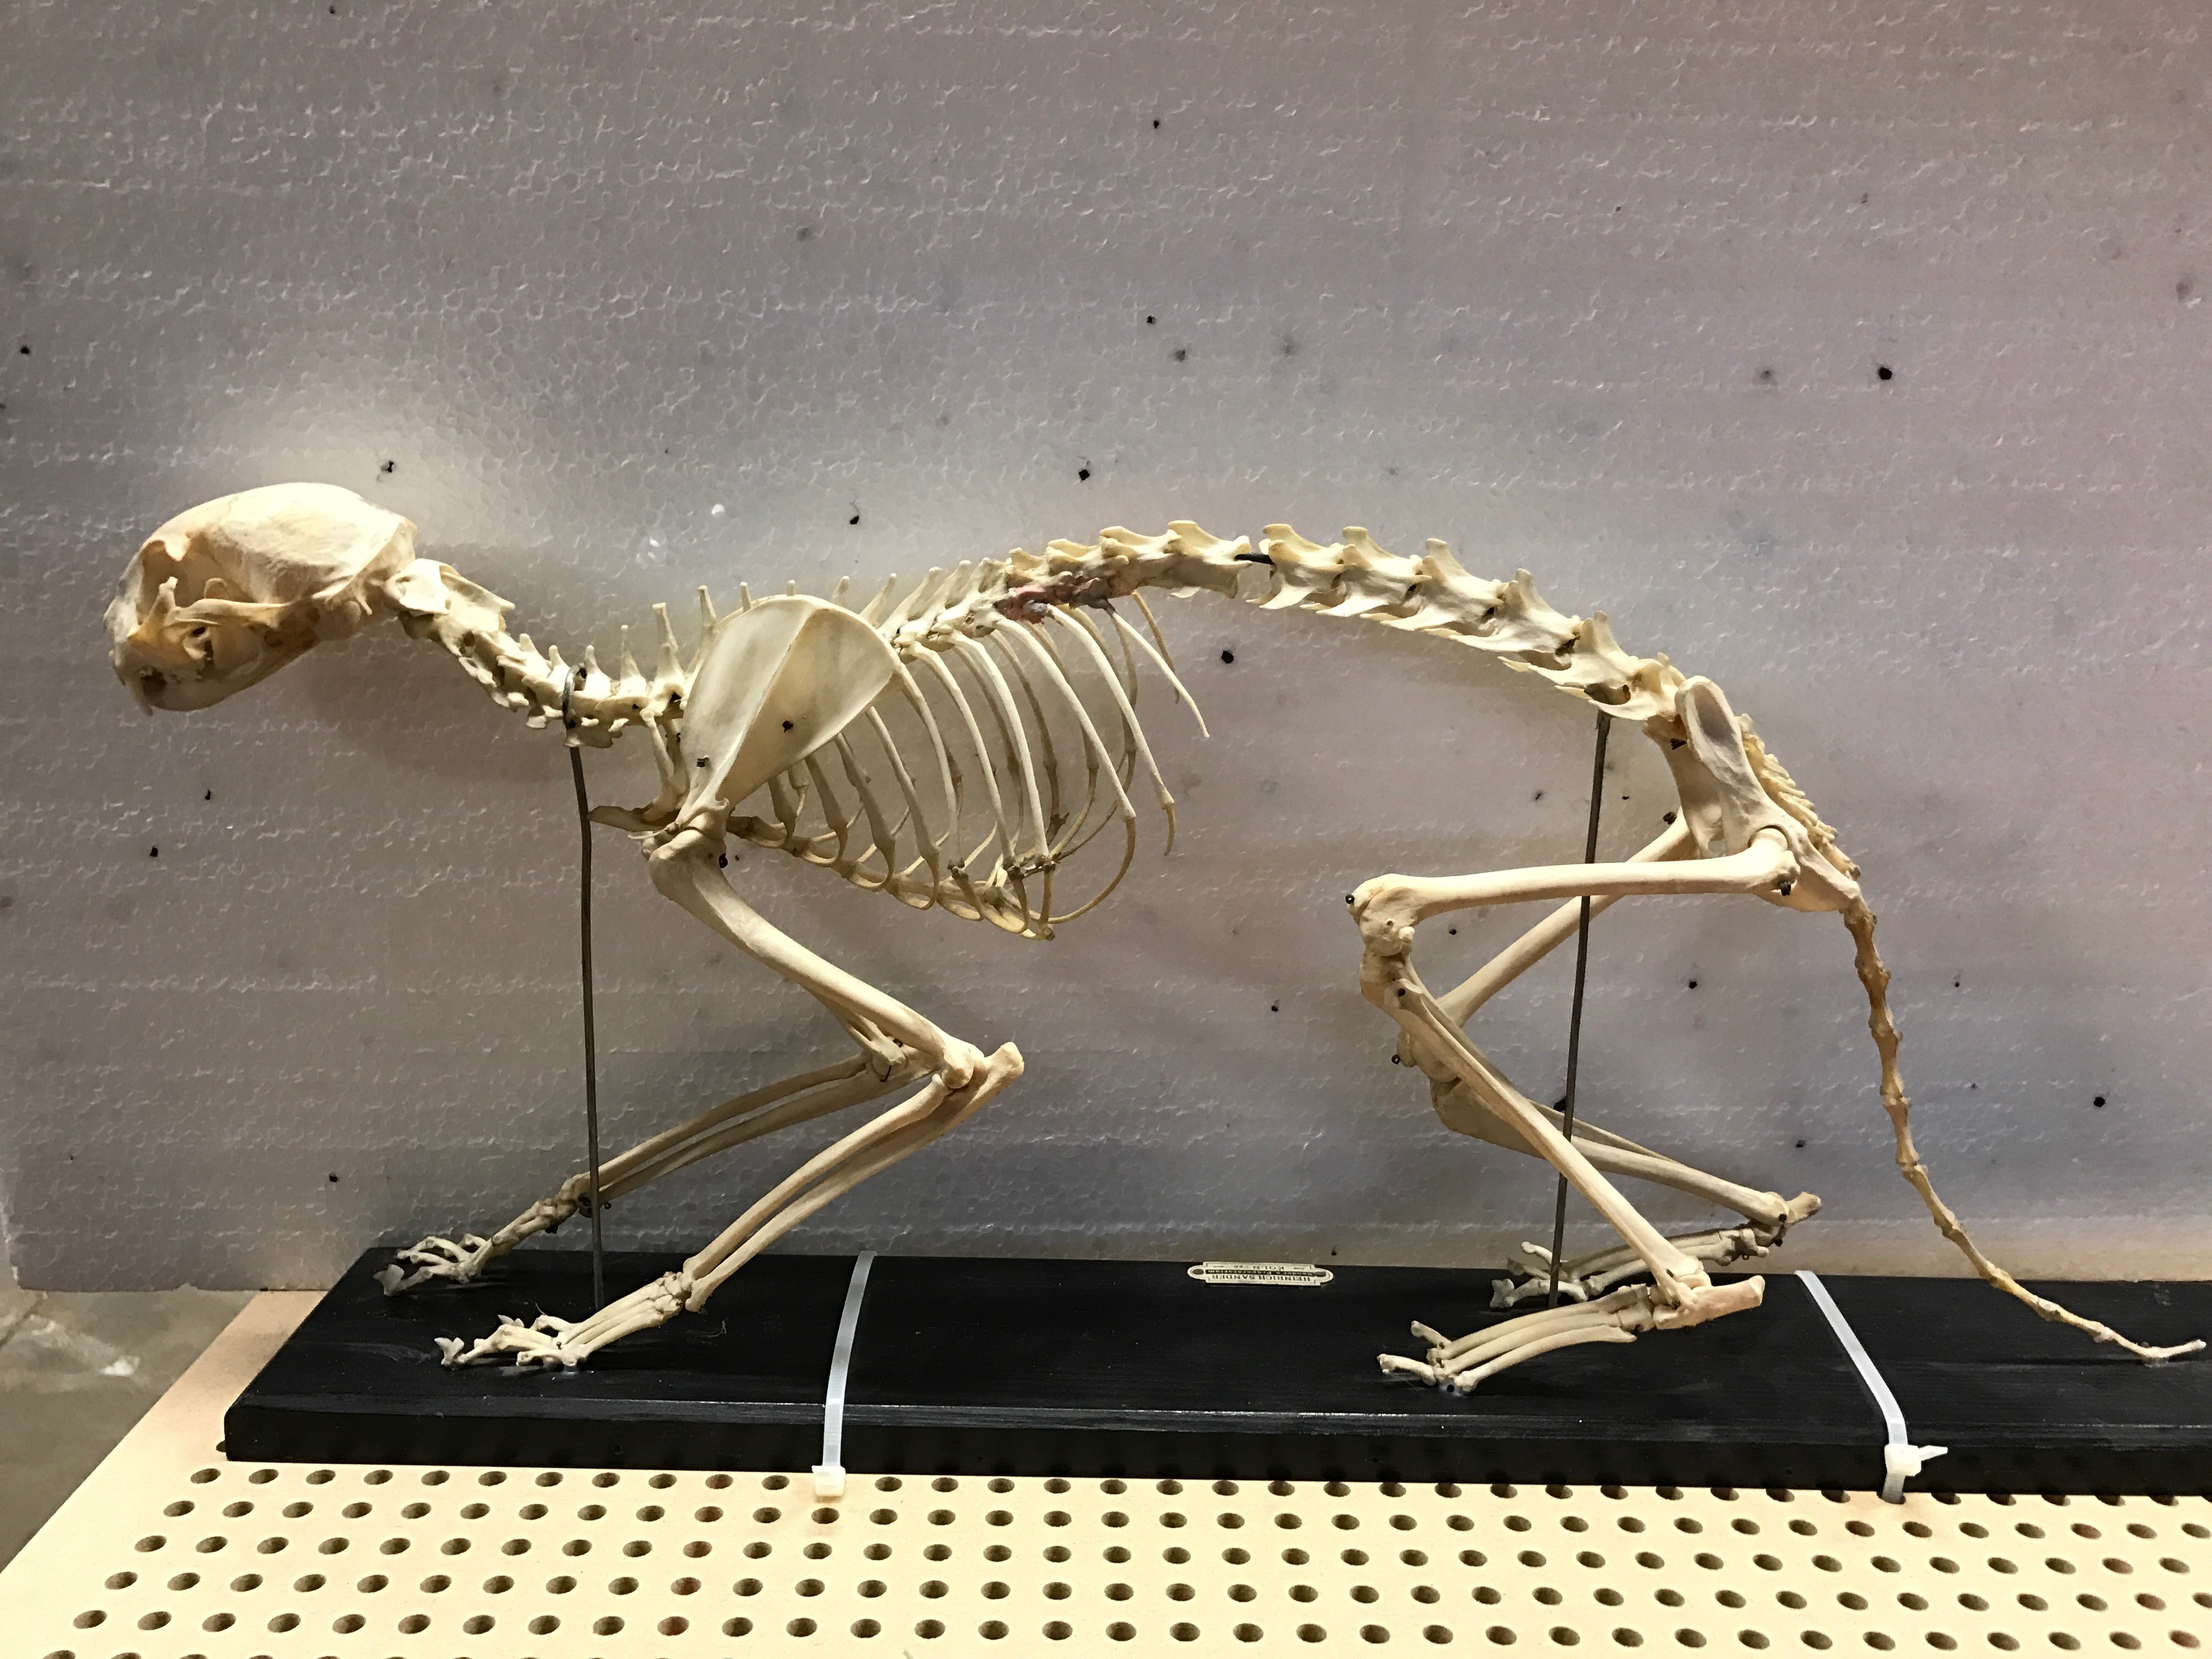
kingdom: Animalia
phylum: Chordata
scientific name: Chordata
